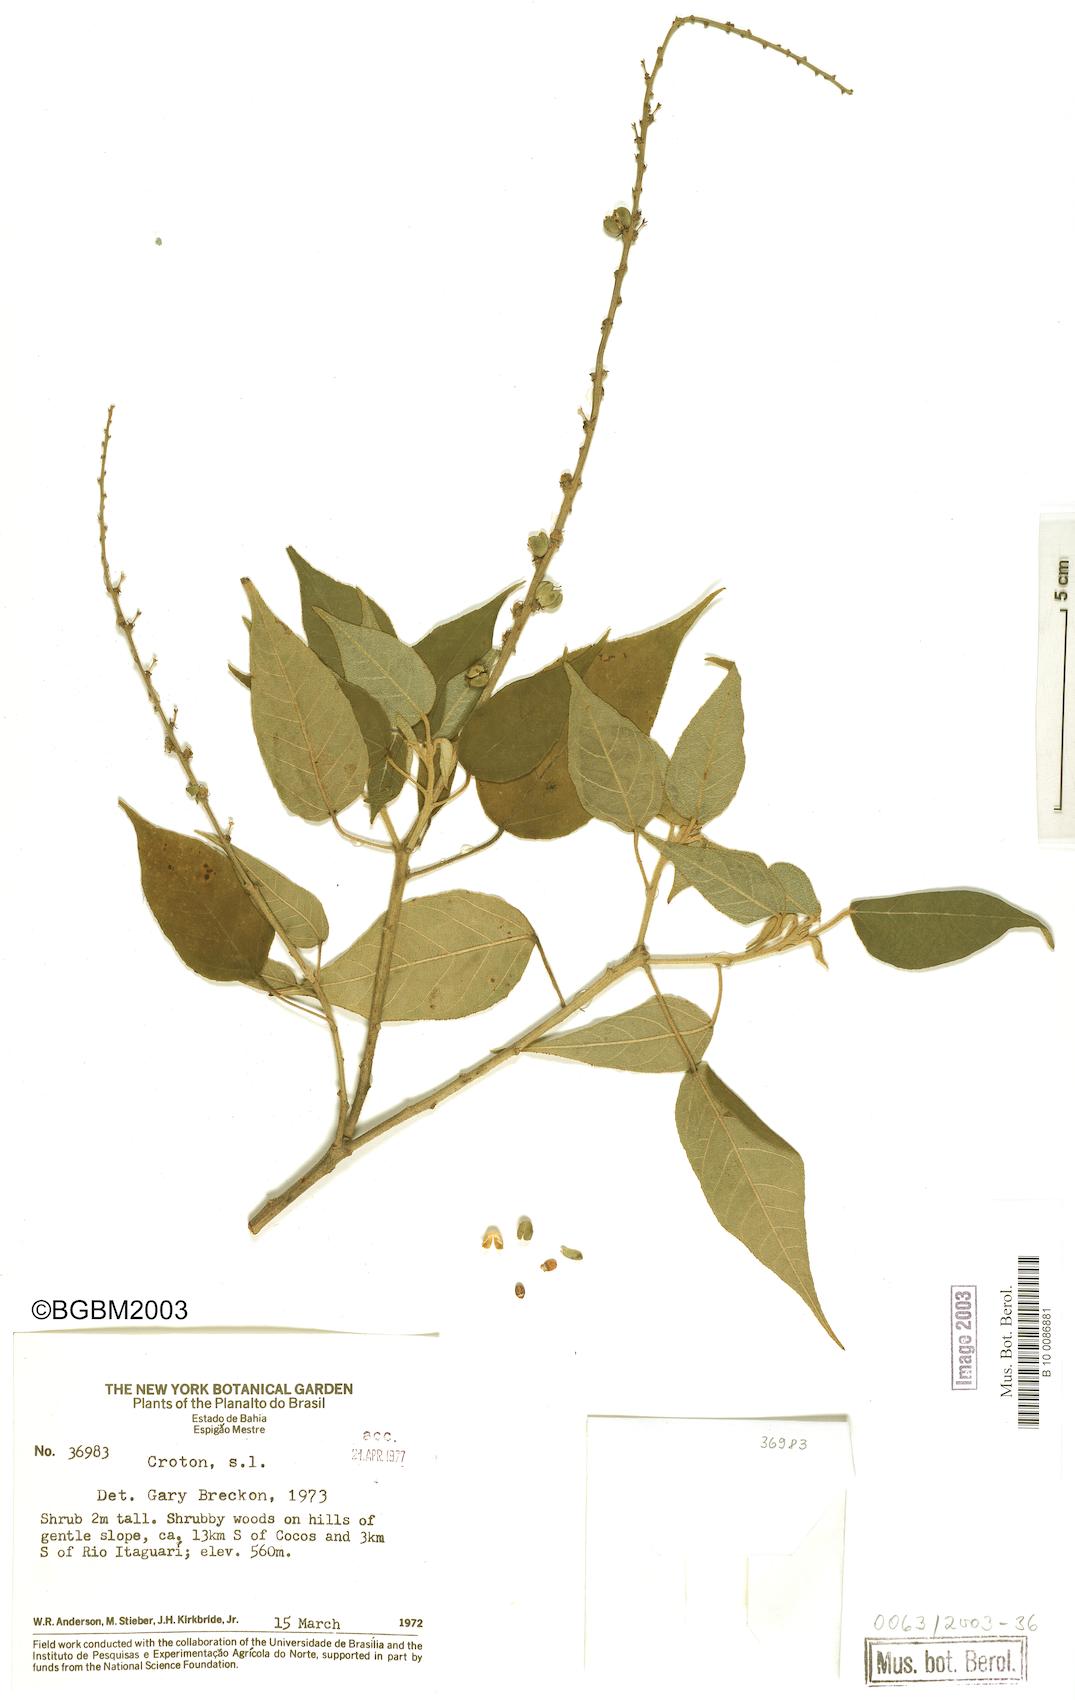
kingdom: Plantae
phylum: Tracheophyta
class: Magnoliopsida
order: Malpighiales
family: Euphorbiaceae
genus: Croton
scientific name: Croton
